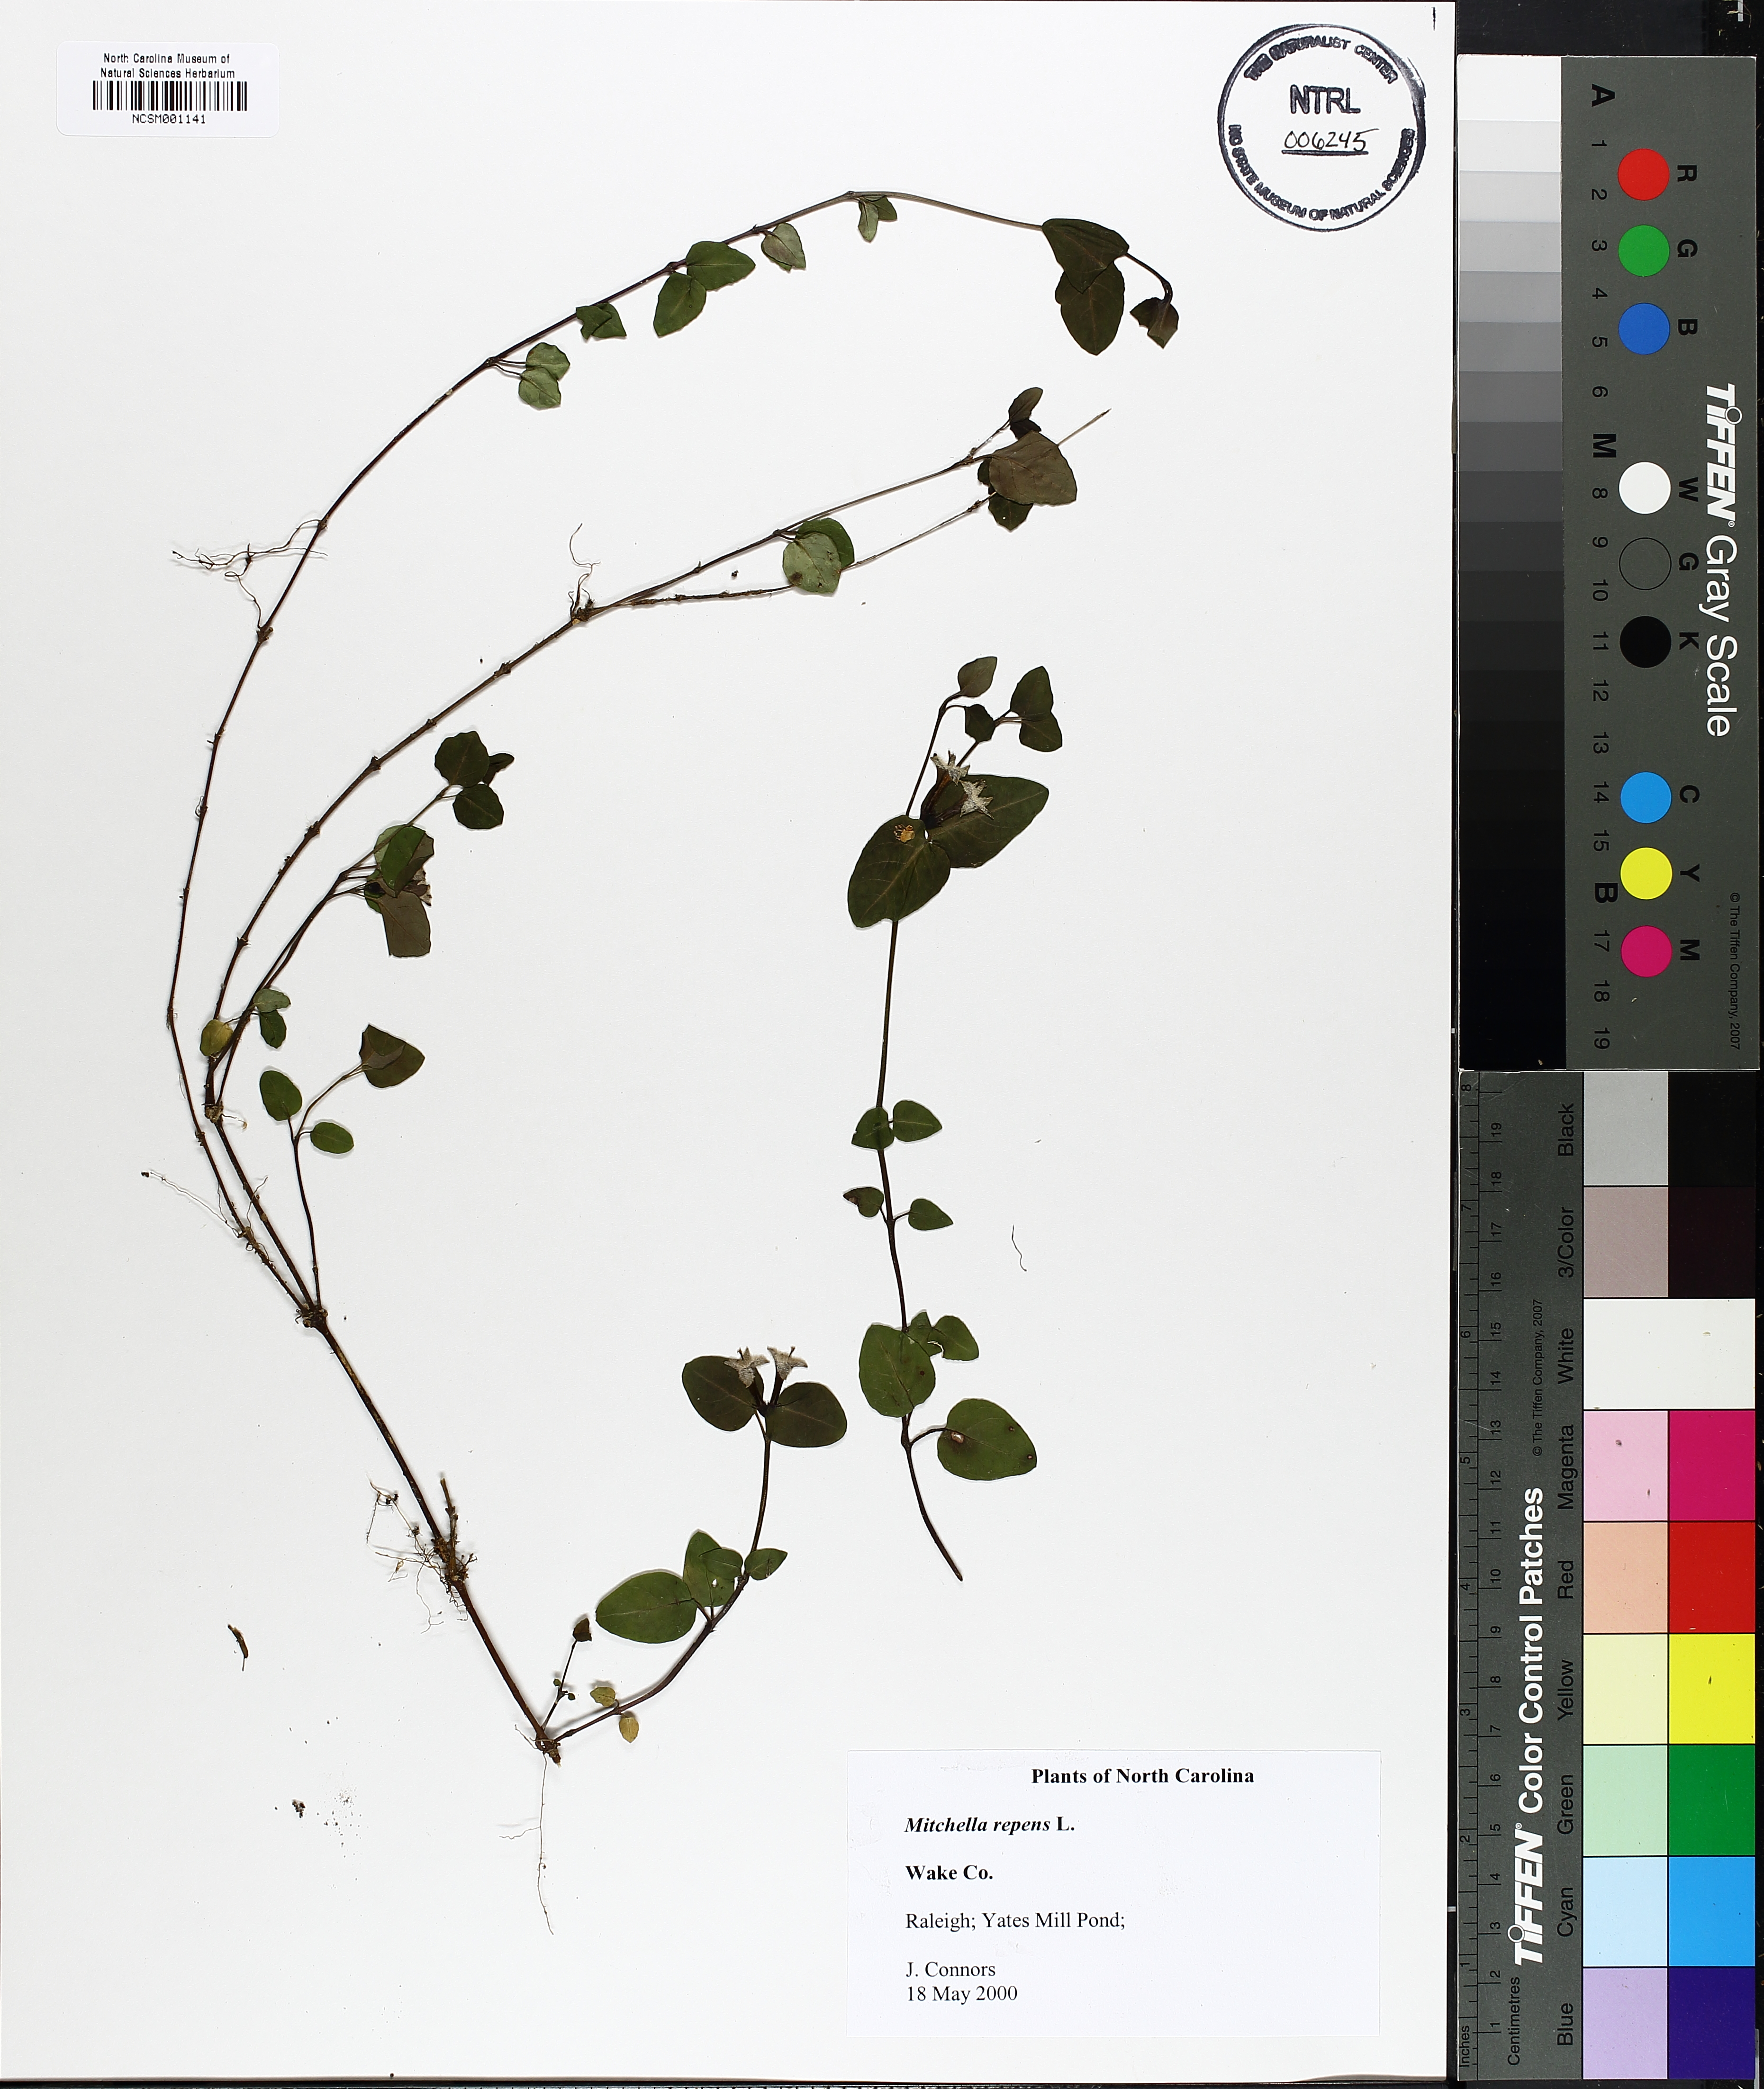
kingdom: Plantae
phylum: Tracheophyta
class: Magnoliopsida
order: Gentianales
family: Rubiaceae
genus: Mitchella
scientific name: Mitchella repens
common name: Partridge-berry
